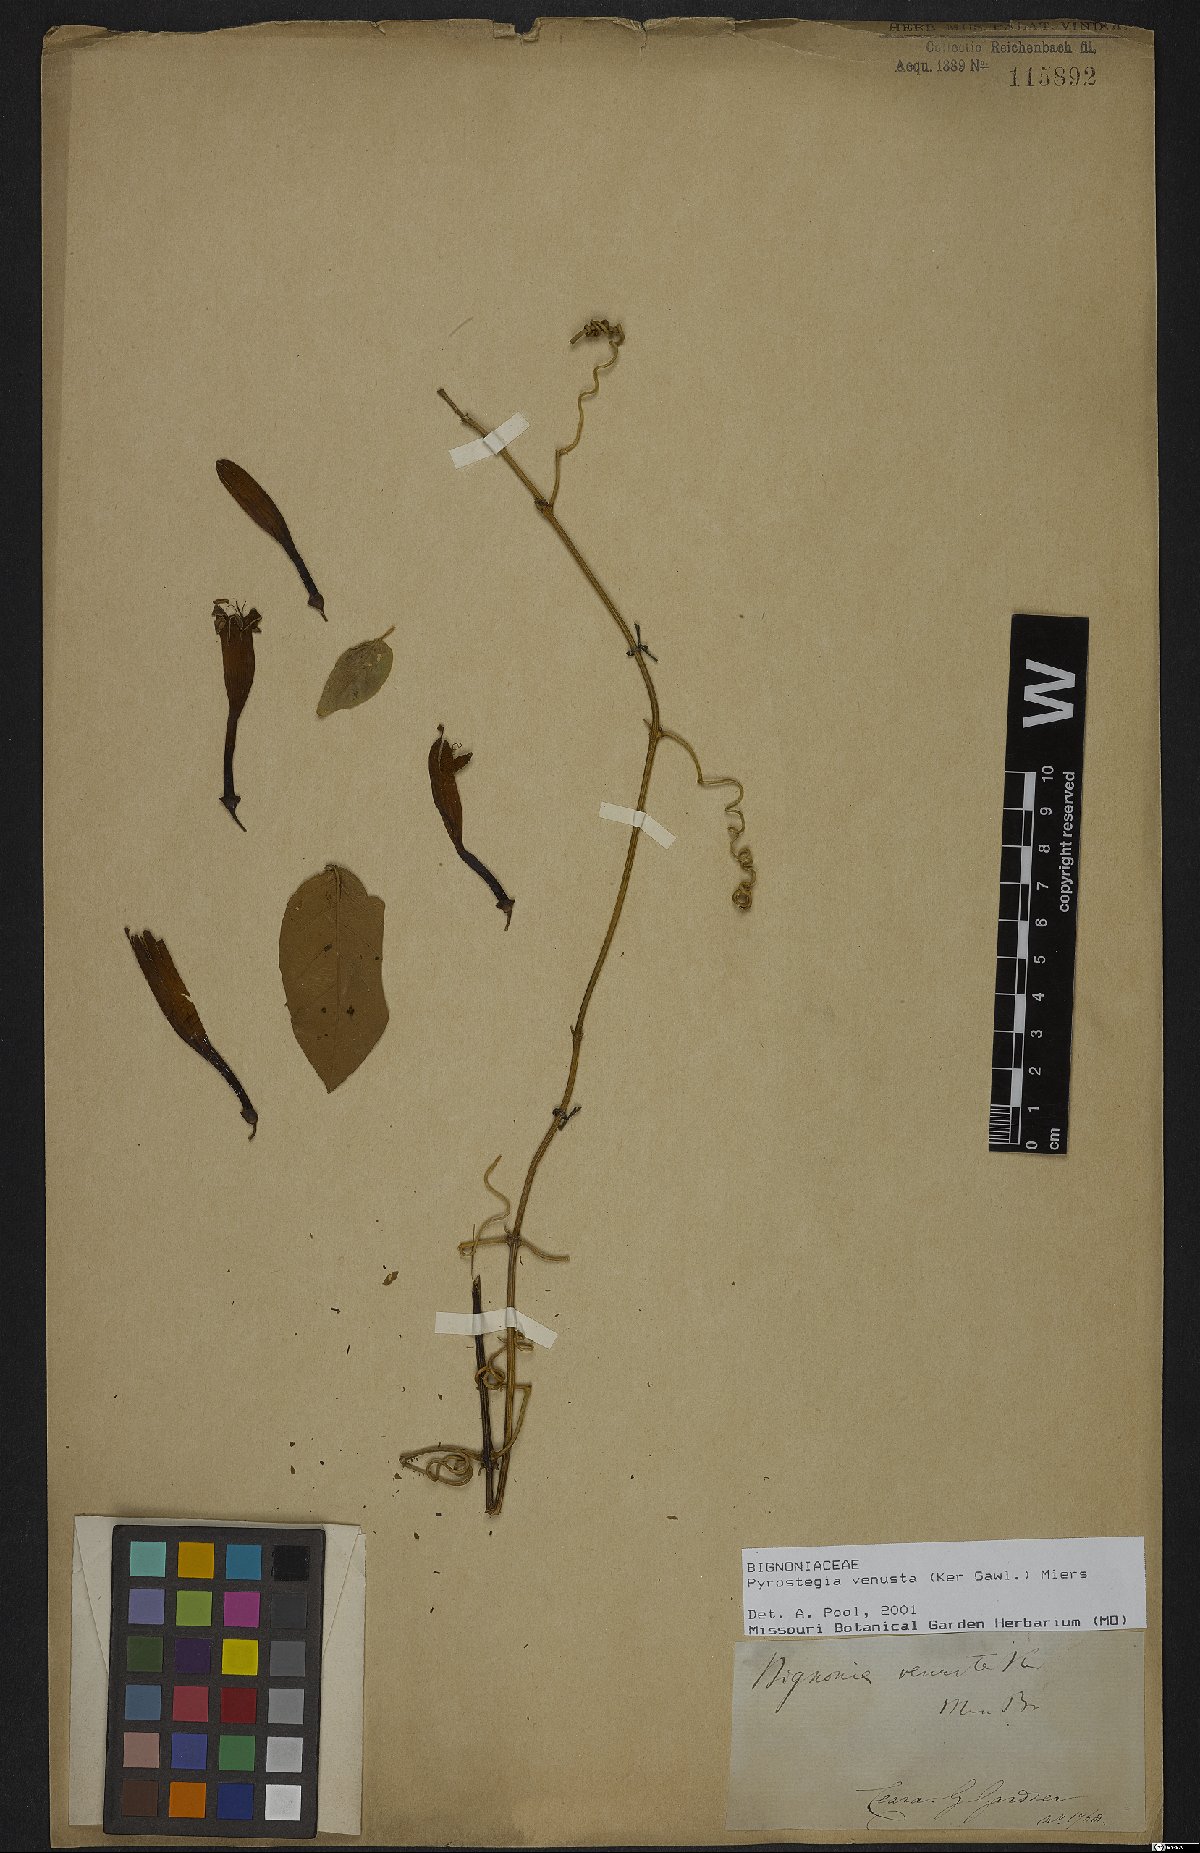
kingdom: Plantae
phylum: Tracheophyta
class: Magnoliopsida
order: Lamiales
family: Bignoniaceae
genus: Pyrostegia
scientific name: Pyrostegia venusta
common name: Flamevine
